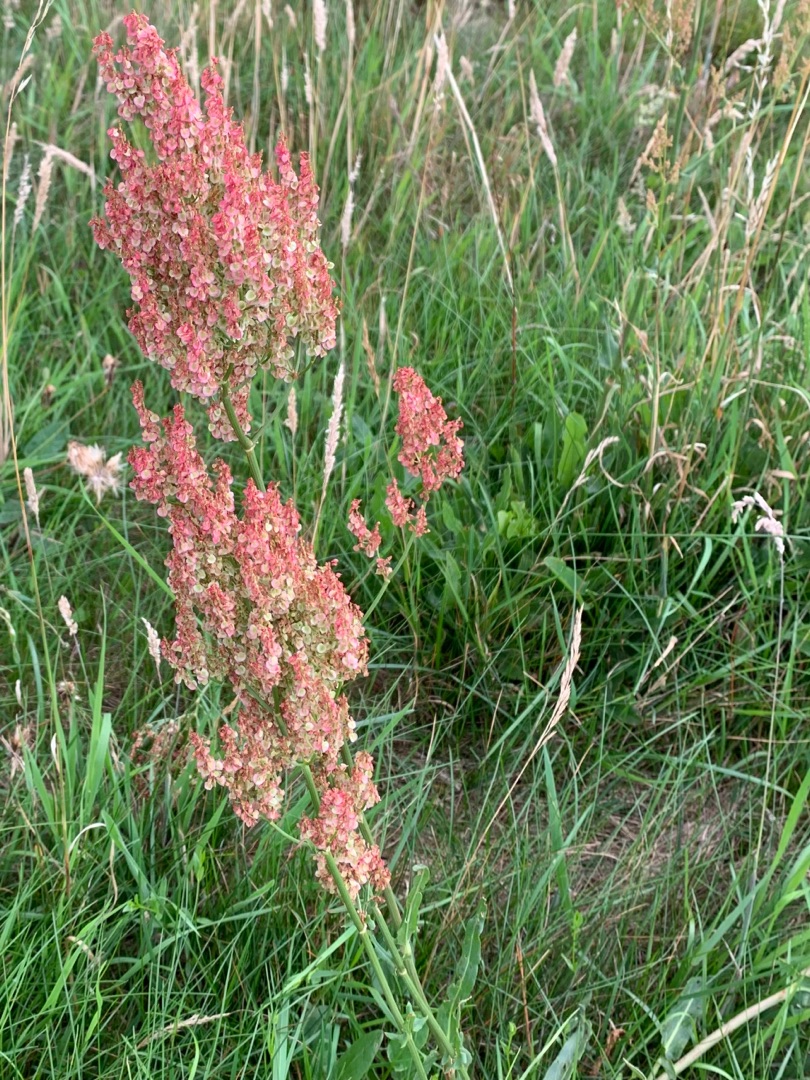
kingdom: Plantae
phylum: Tracheophyta
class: Magnoliopsida
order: Caryophyllales
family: Polygonaceae
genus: Rumex
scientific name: Rumex thyrsiflorus
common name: Dusk-syre
